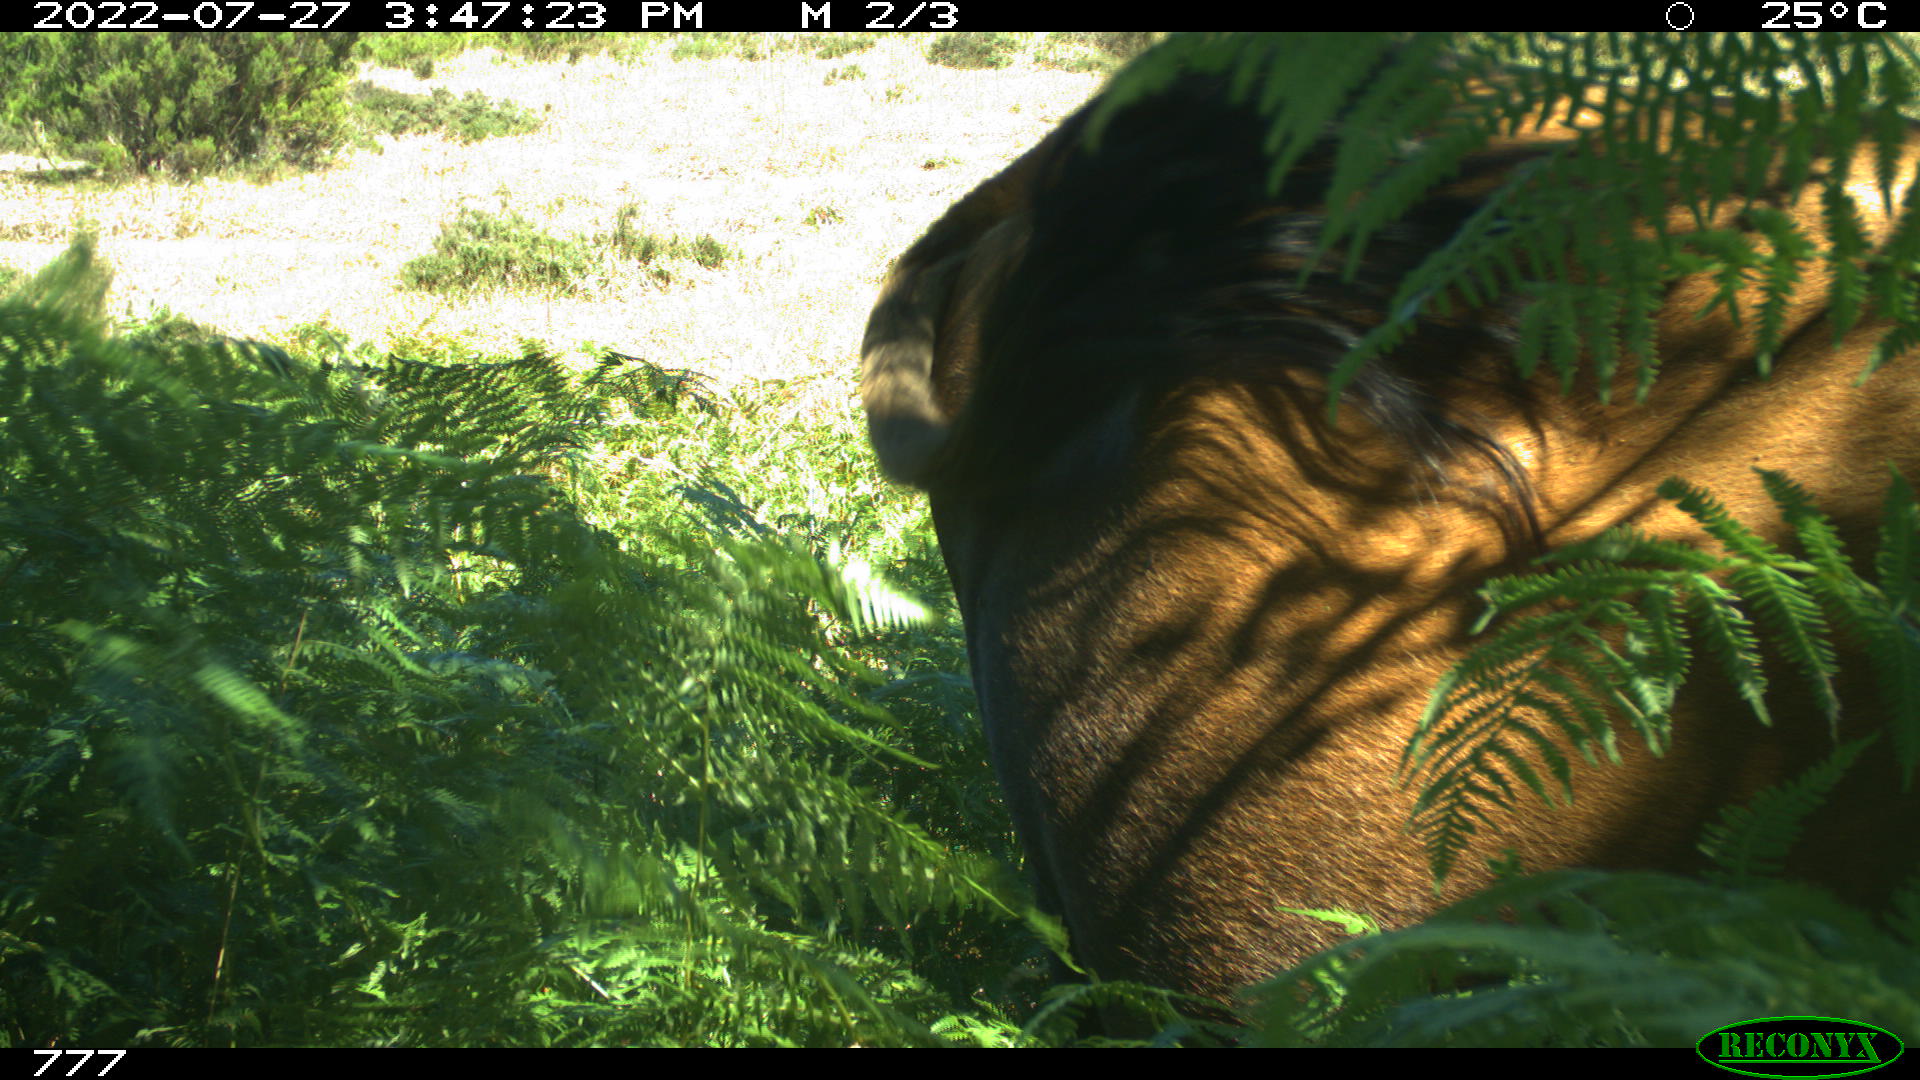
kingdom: Animalia
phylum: Chordata
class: Mammalia
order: Artiodactyla
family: Bovidae
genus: Bos
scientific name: Bos taurus
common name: Domesticated cattle
